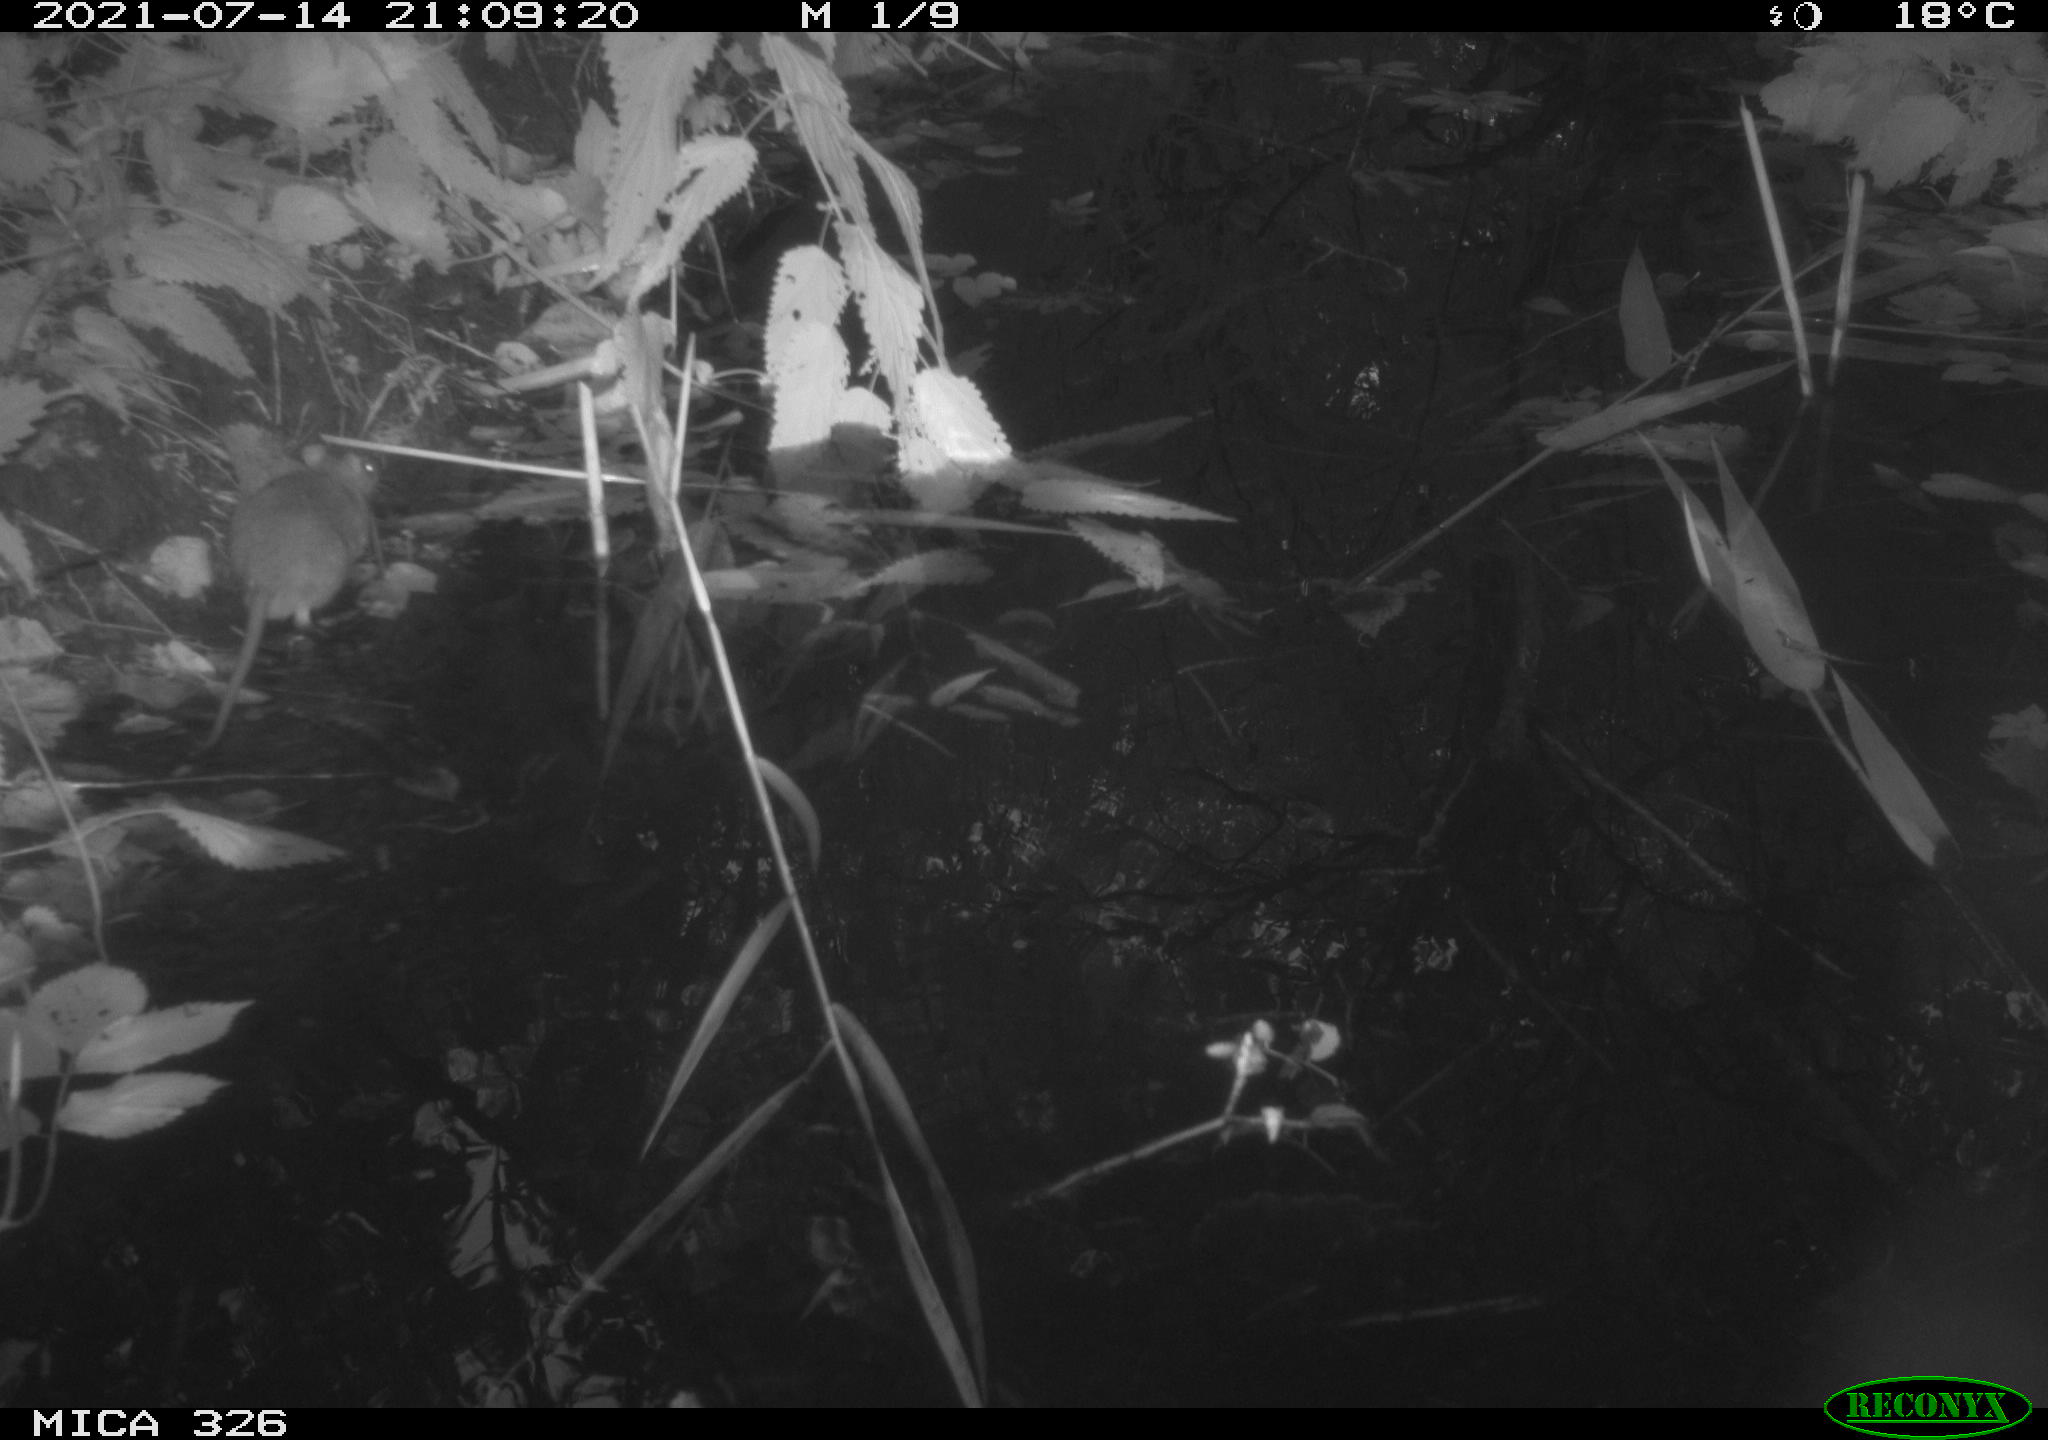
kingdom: Animalia
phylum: Chordata
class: Mammalia
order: Rodentia
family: Muridae
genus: Rattus
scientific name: Rattus norvegicus
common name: Brown rat
